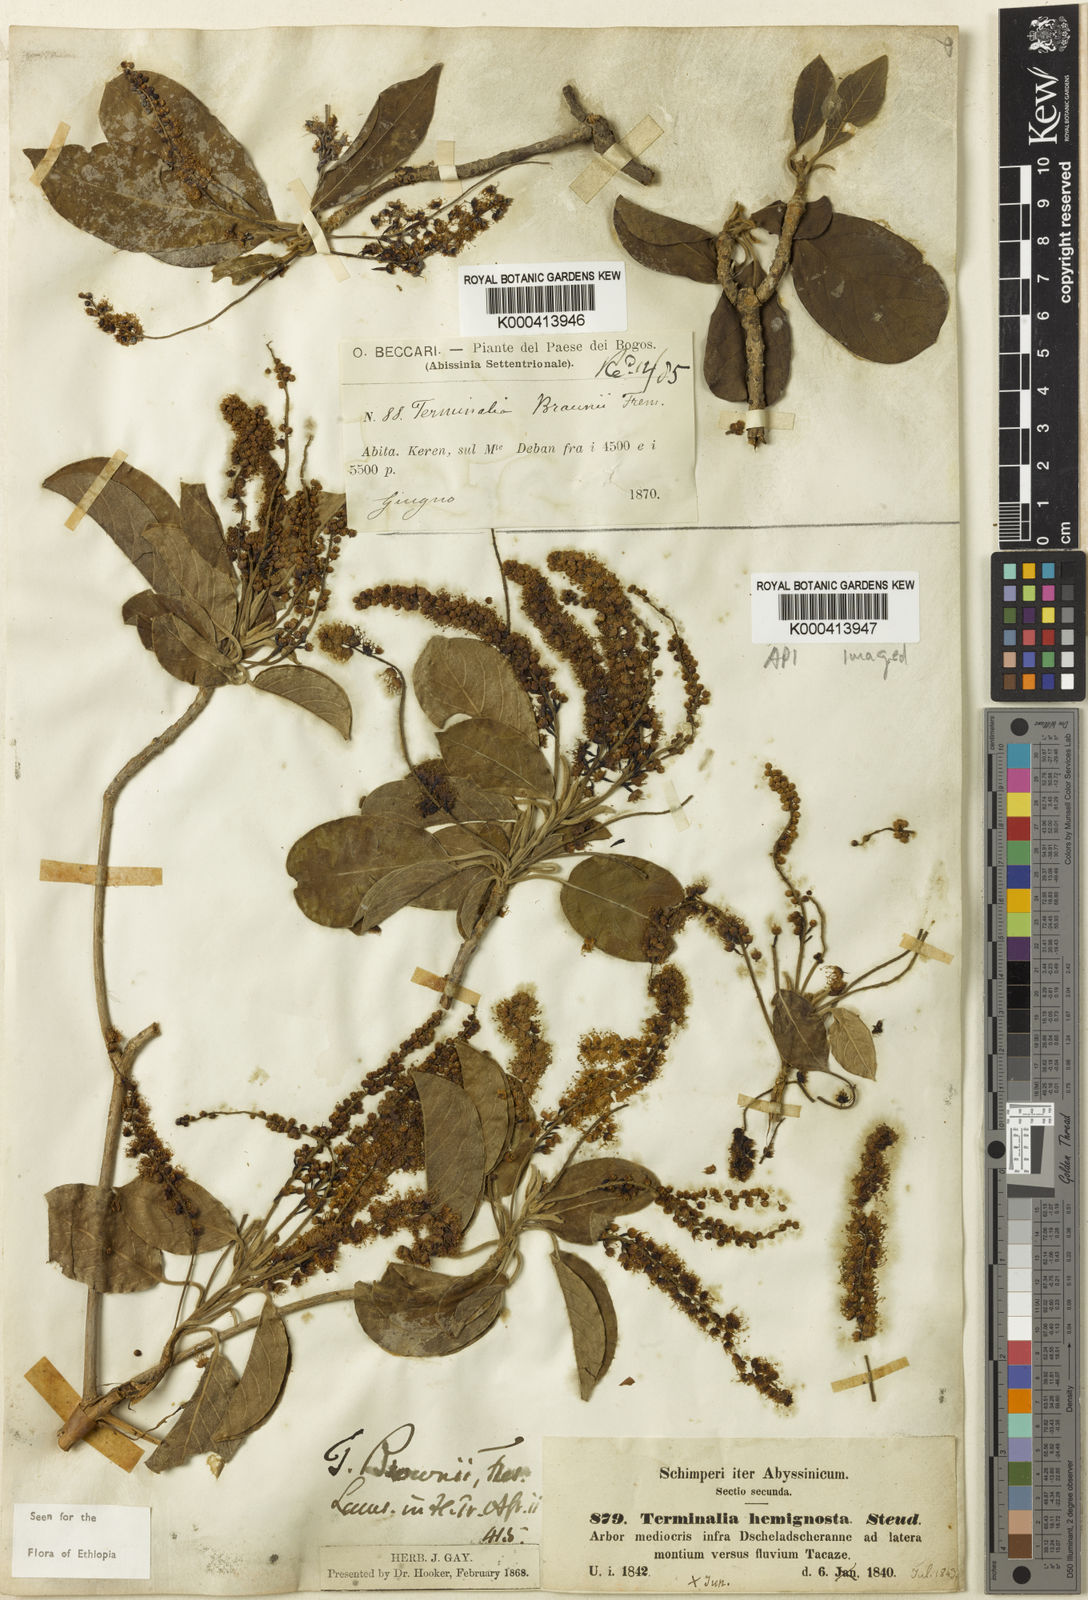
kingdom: Plantae
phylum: Tracheophyta
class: Magnoliopsida
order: Myrtales
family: Combretaceae
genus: Terminalia
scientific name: Terminalia brownii
